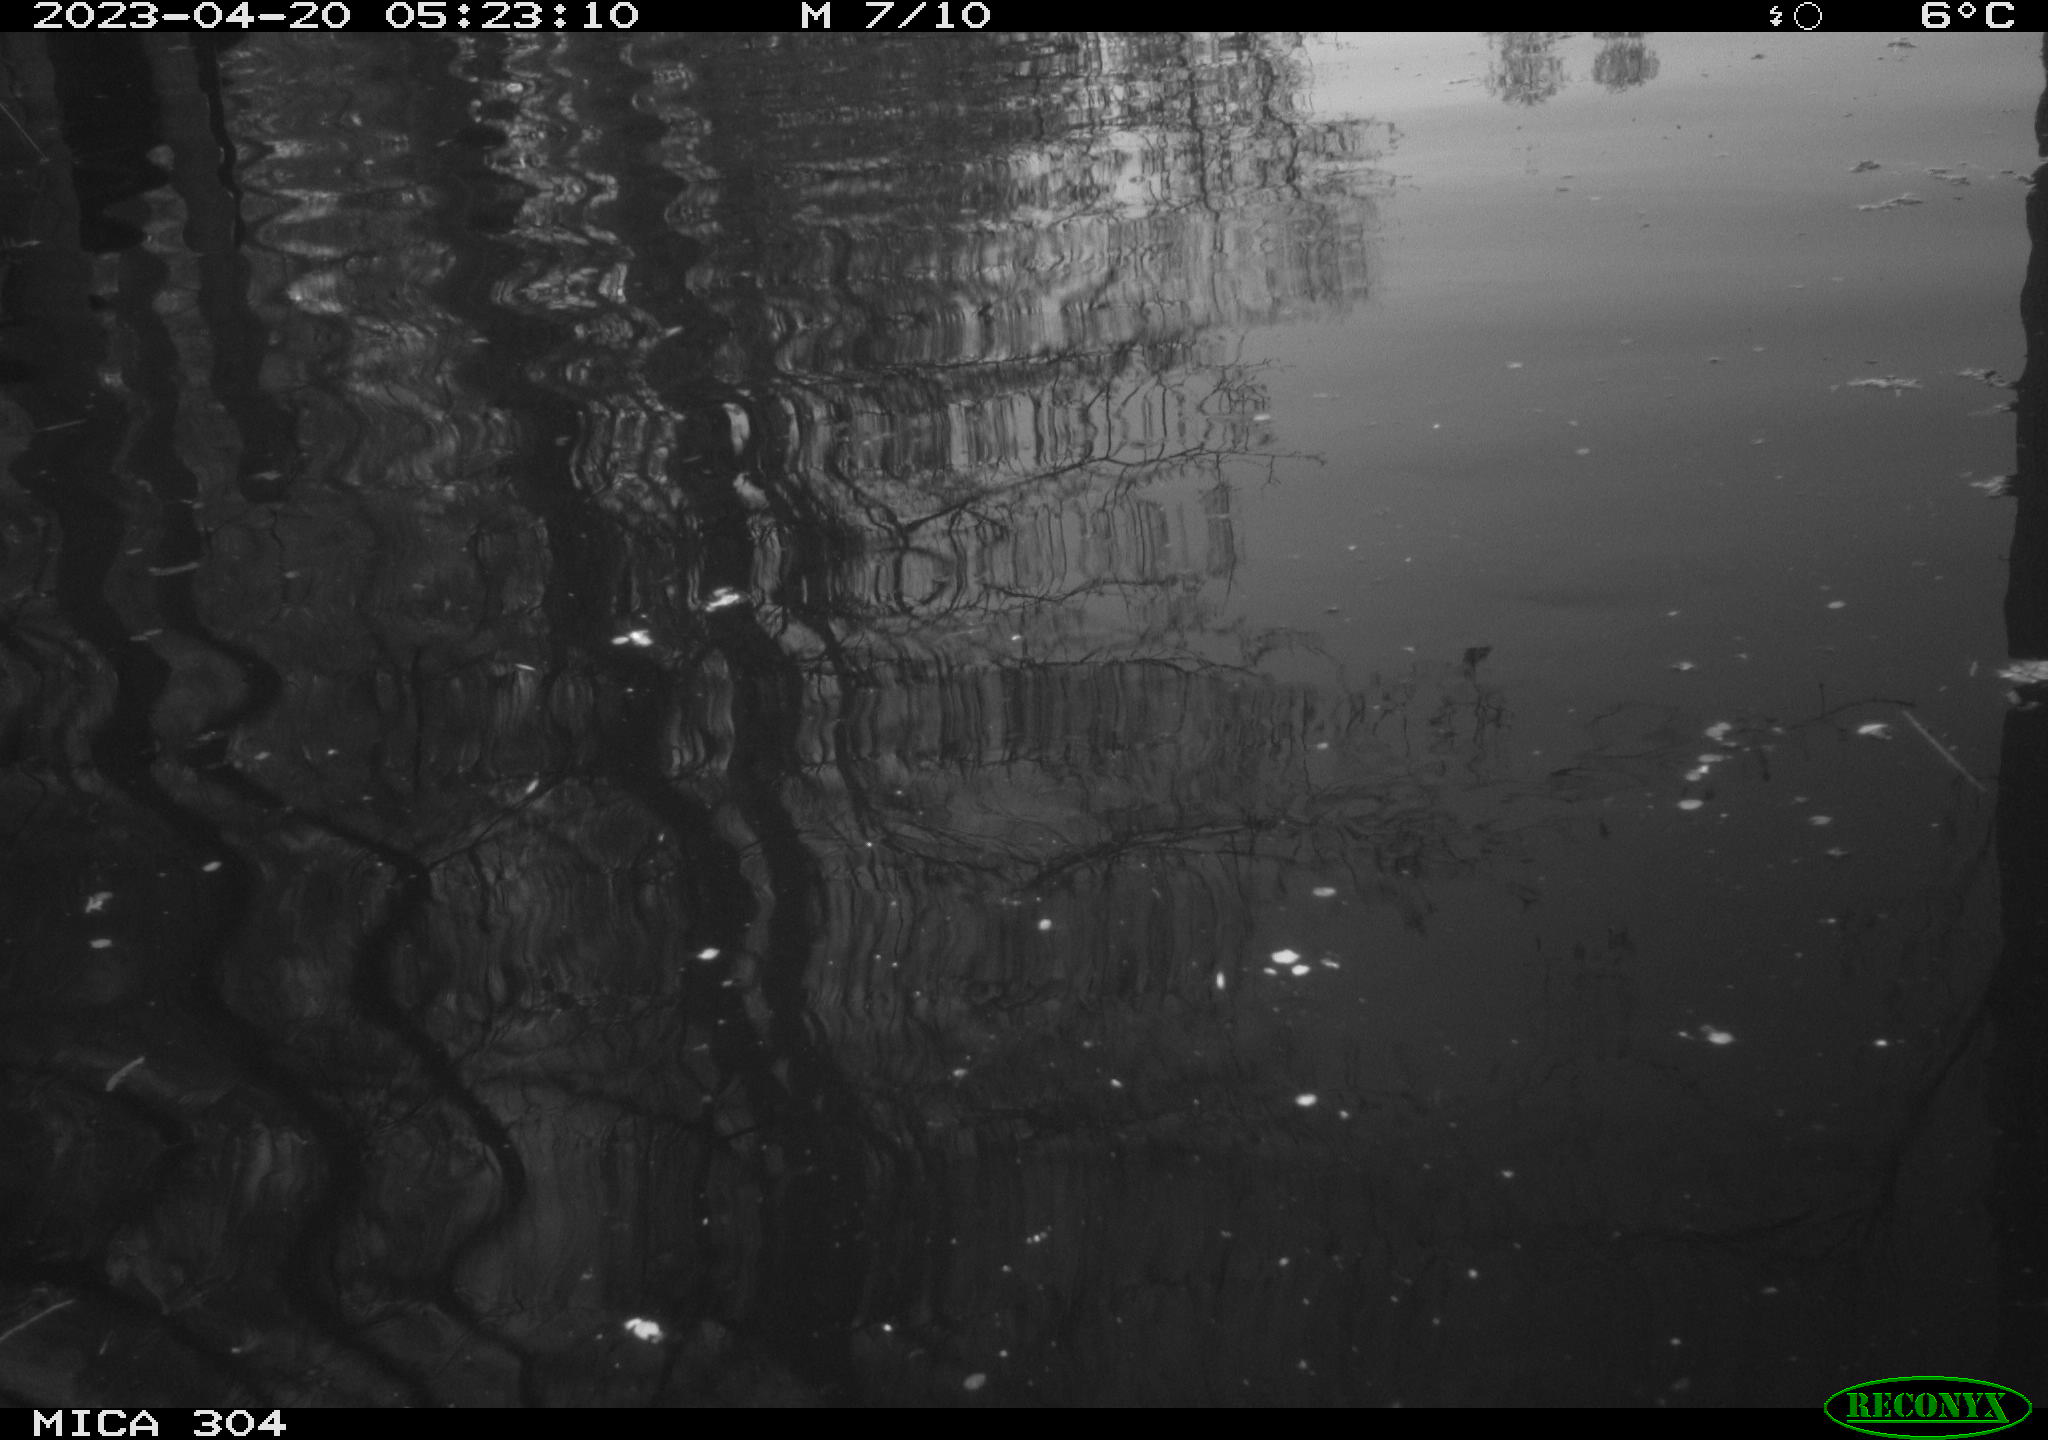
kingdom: Animalia
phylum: Chordata
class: Aves
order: Anseriformes
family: Anatidae
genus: Anas
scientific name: Anas
